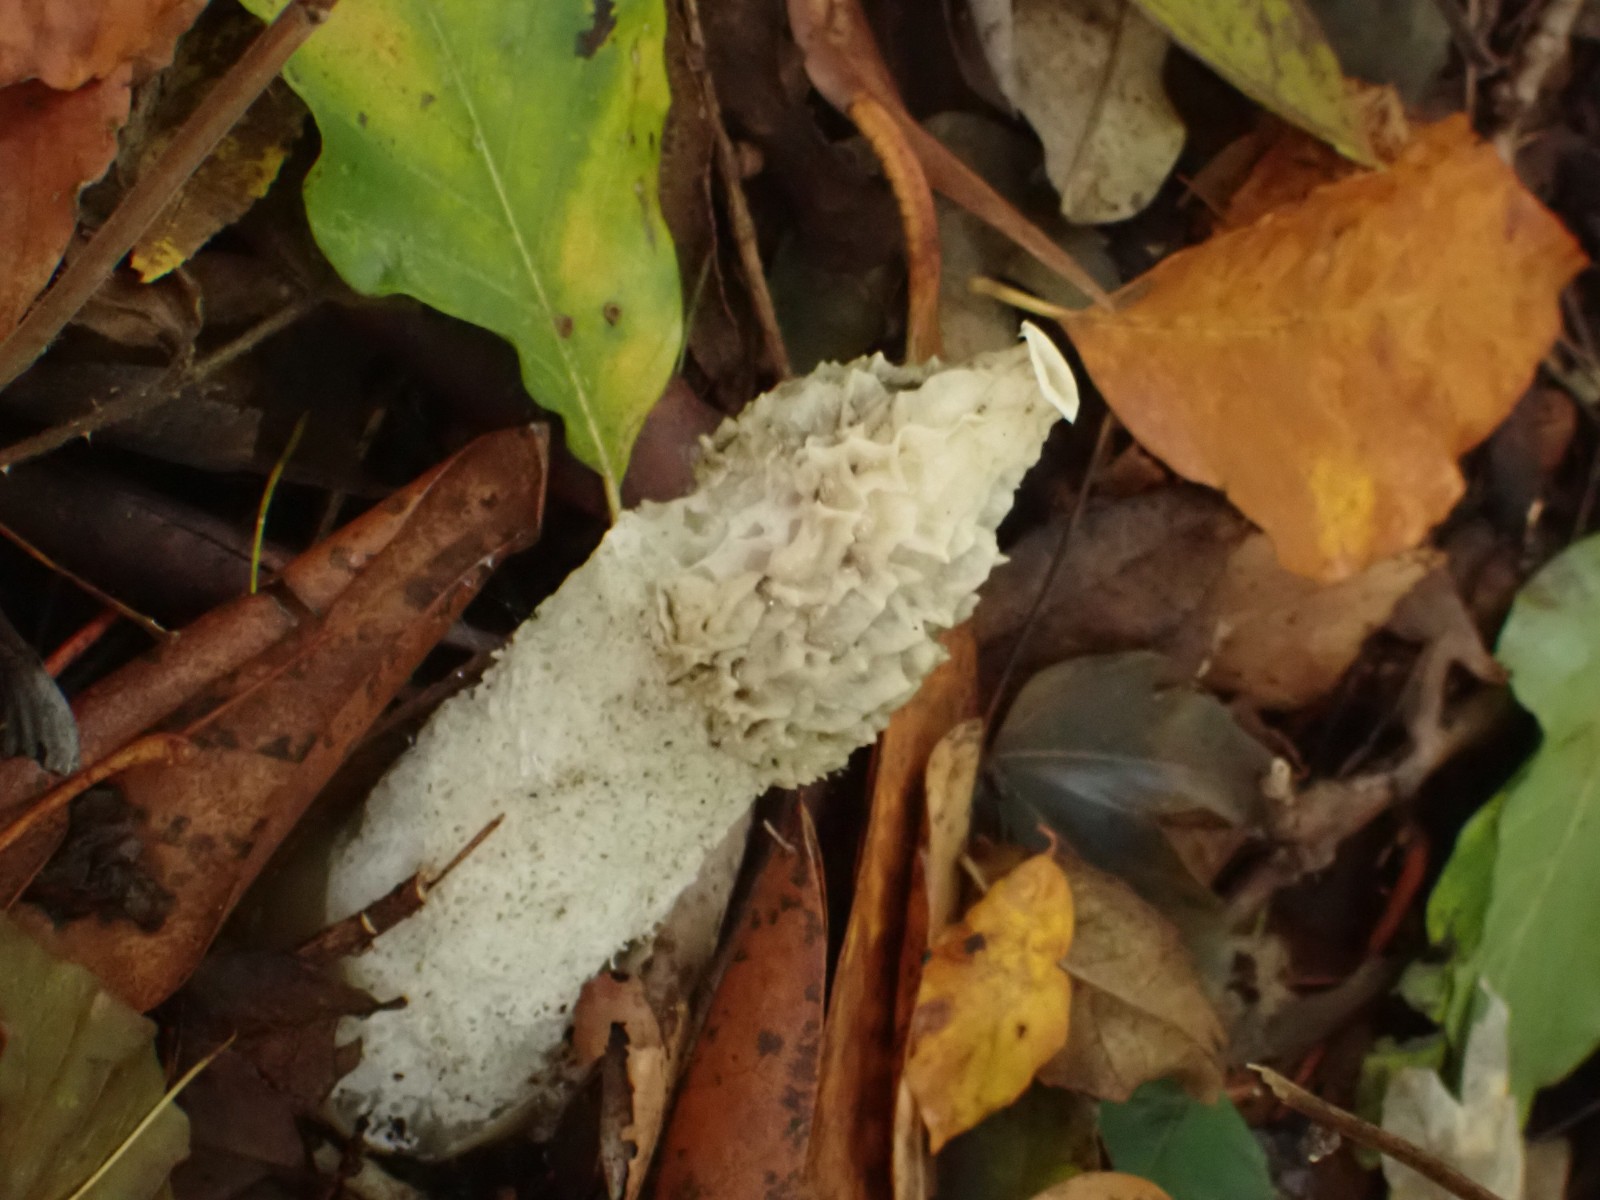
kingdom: Fungi
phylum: Basidiomycota
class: Agaricomycetes
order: Phallales
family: Phallaceae
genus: Phallus
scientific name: Phallus impudicus
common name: almindelig stinksvamp
